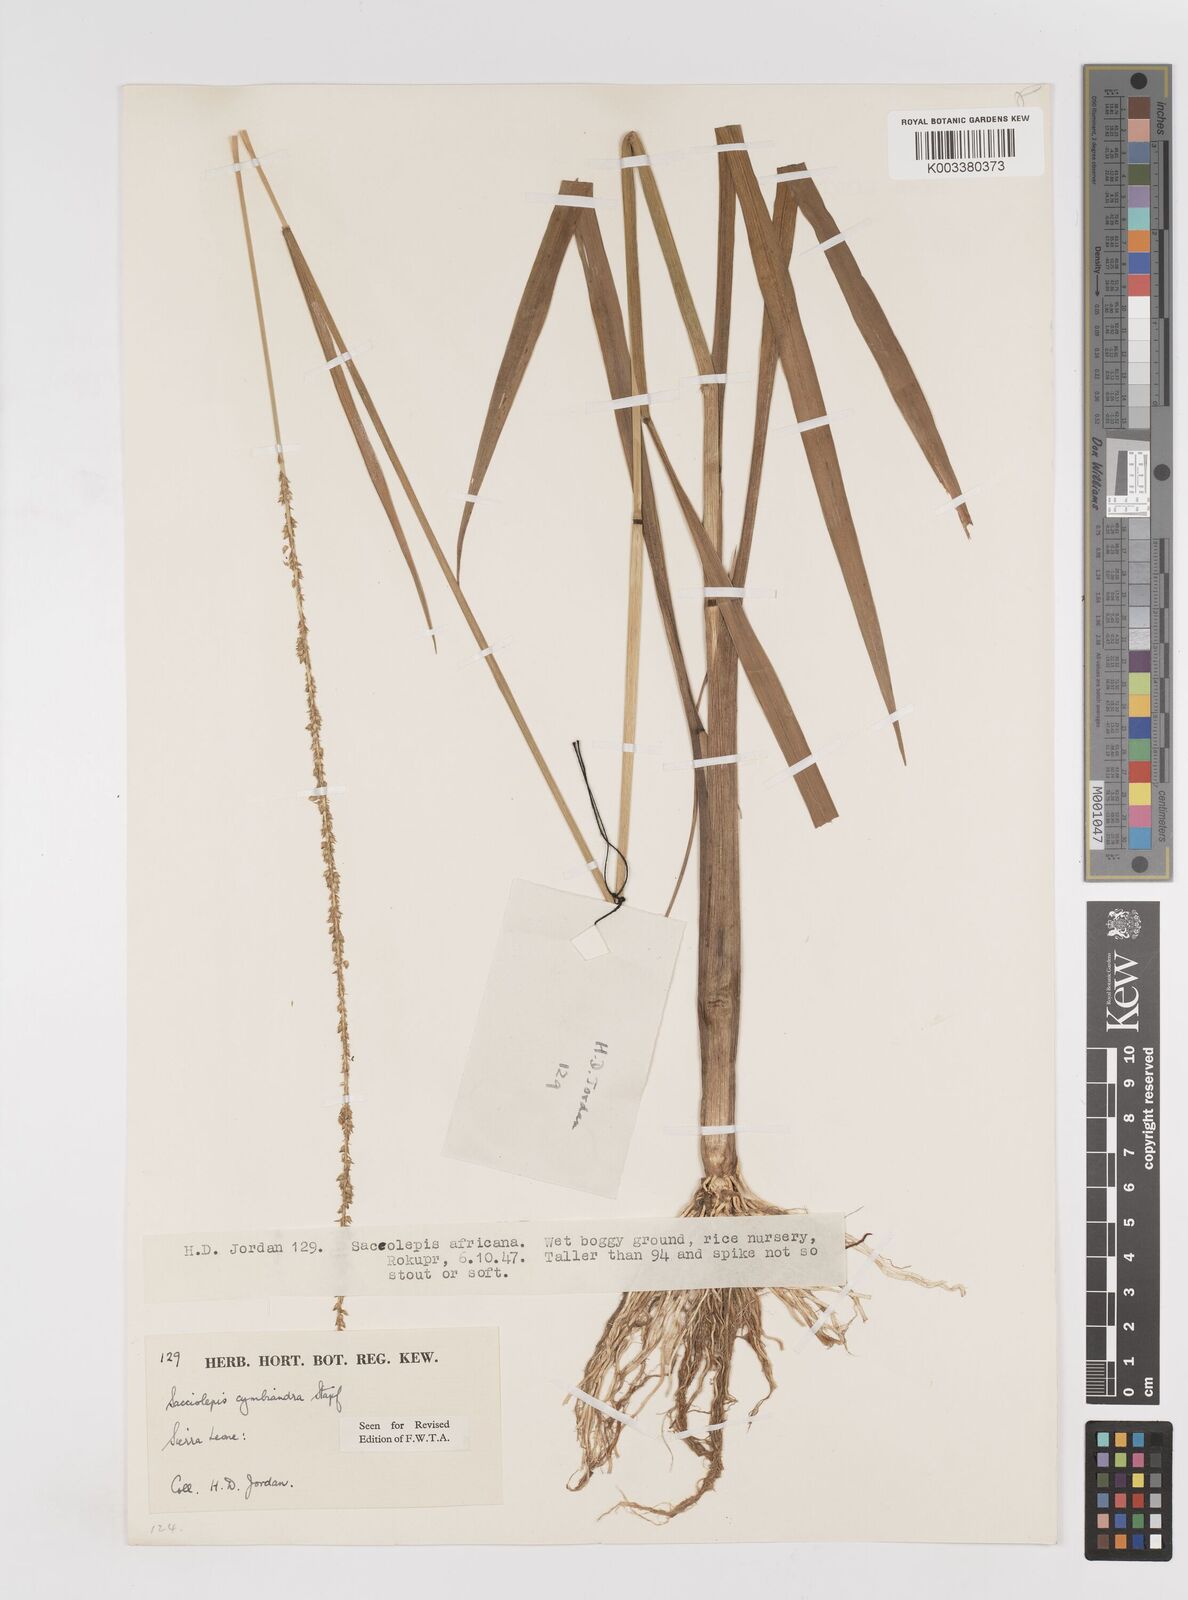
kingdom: Plantae
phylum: Tracheophyta
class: Liliopsida
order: Poales
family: Poaceae
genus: Sacciolepis
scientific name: Sacciolepis cymbiandra
